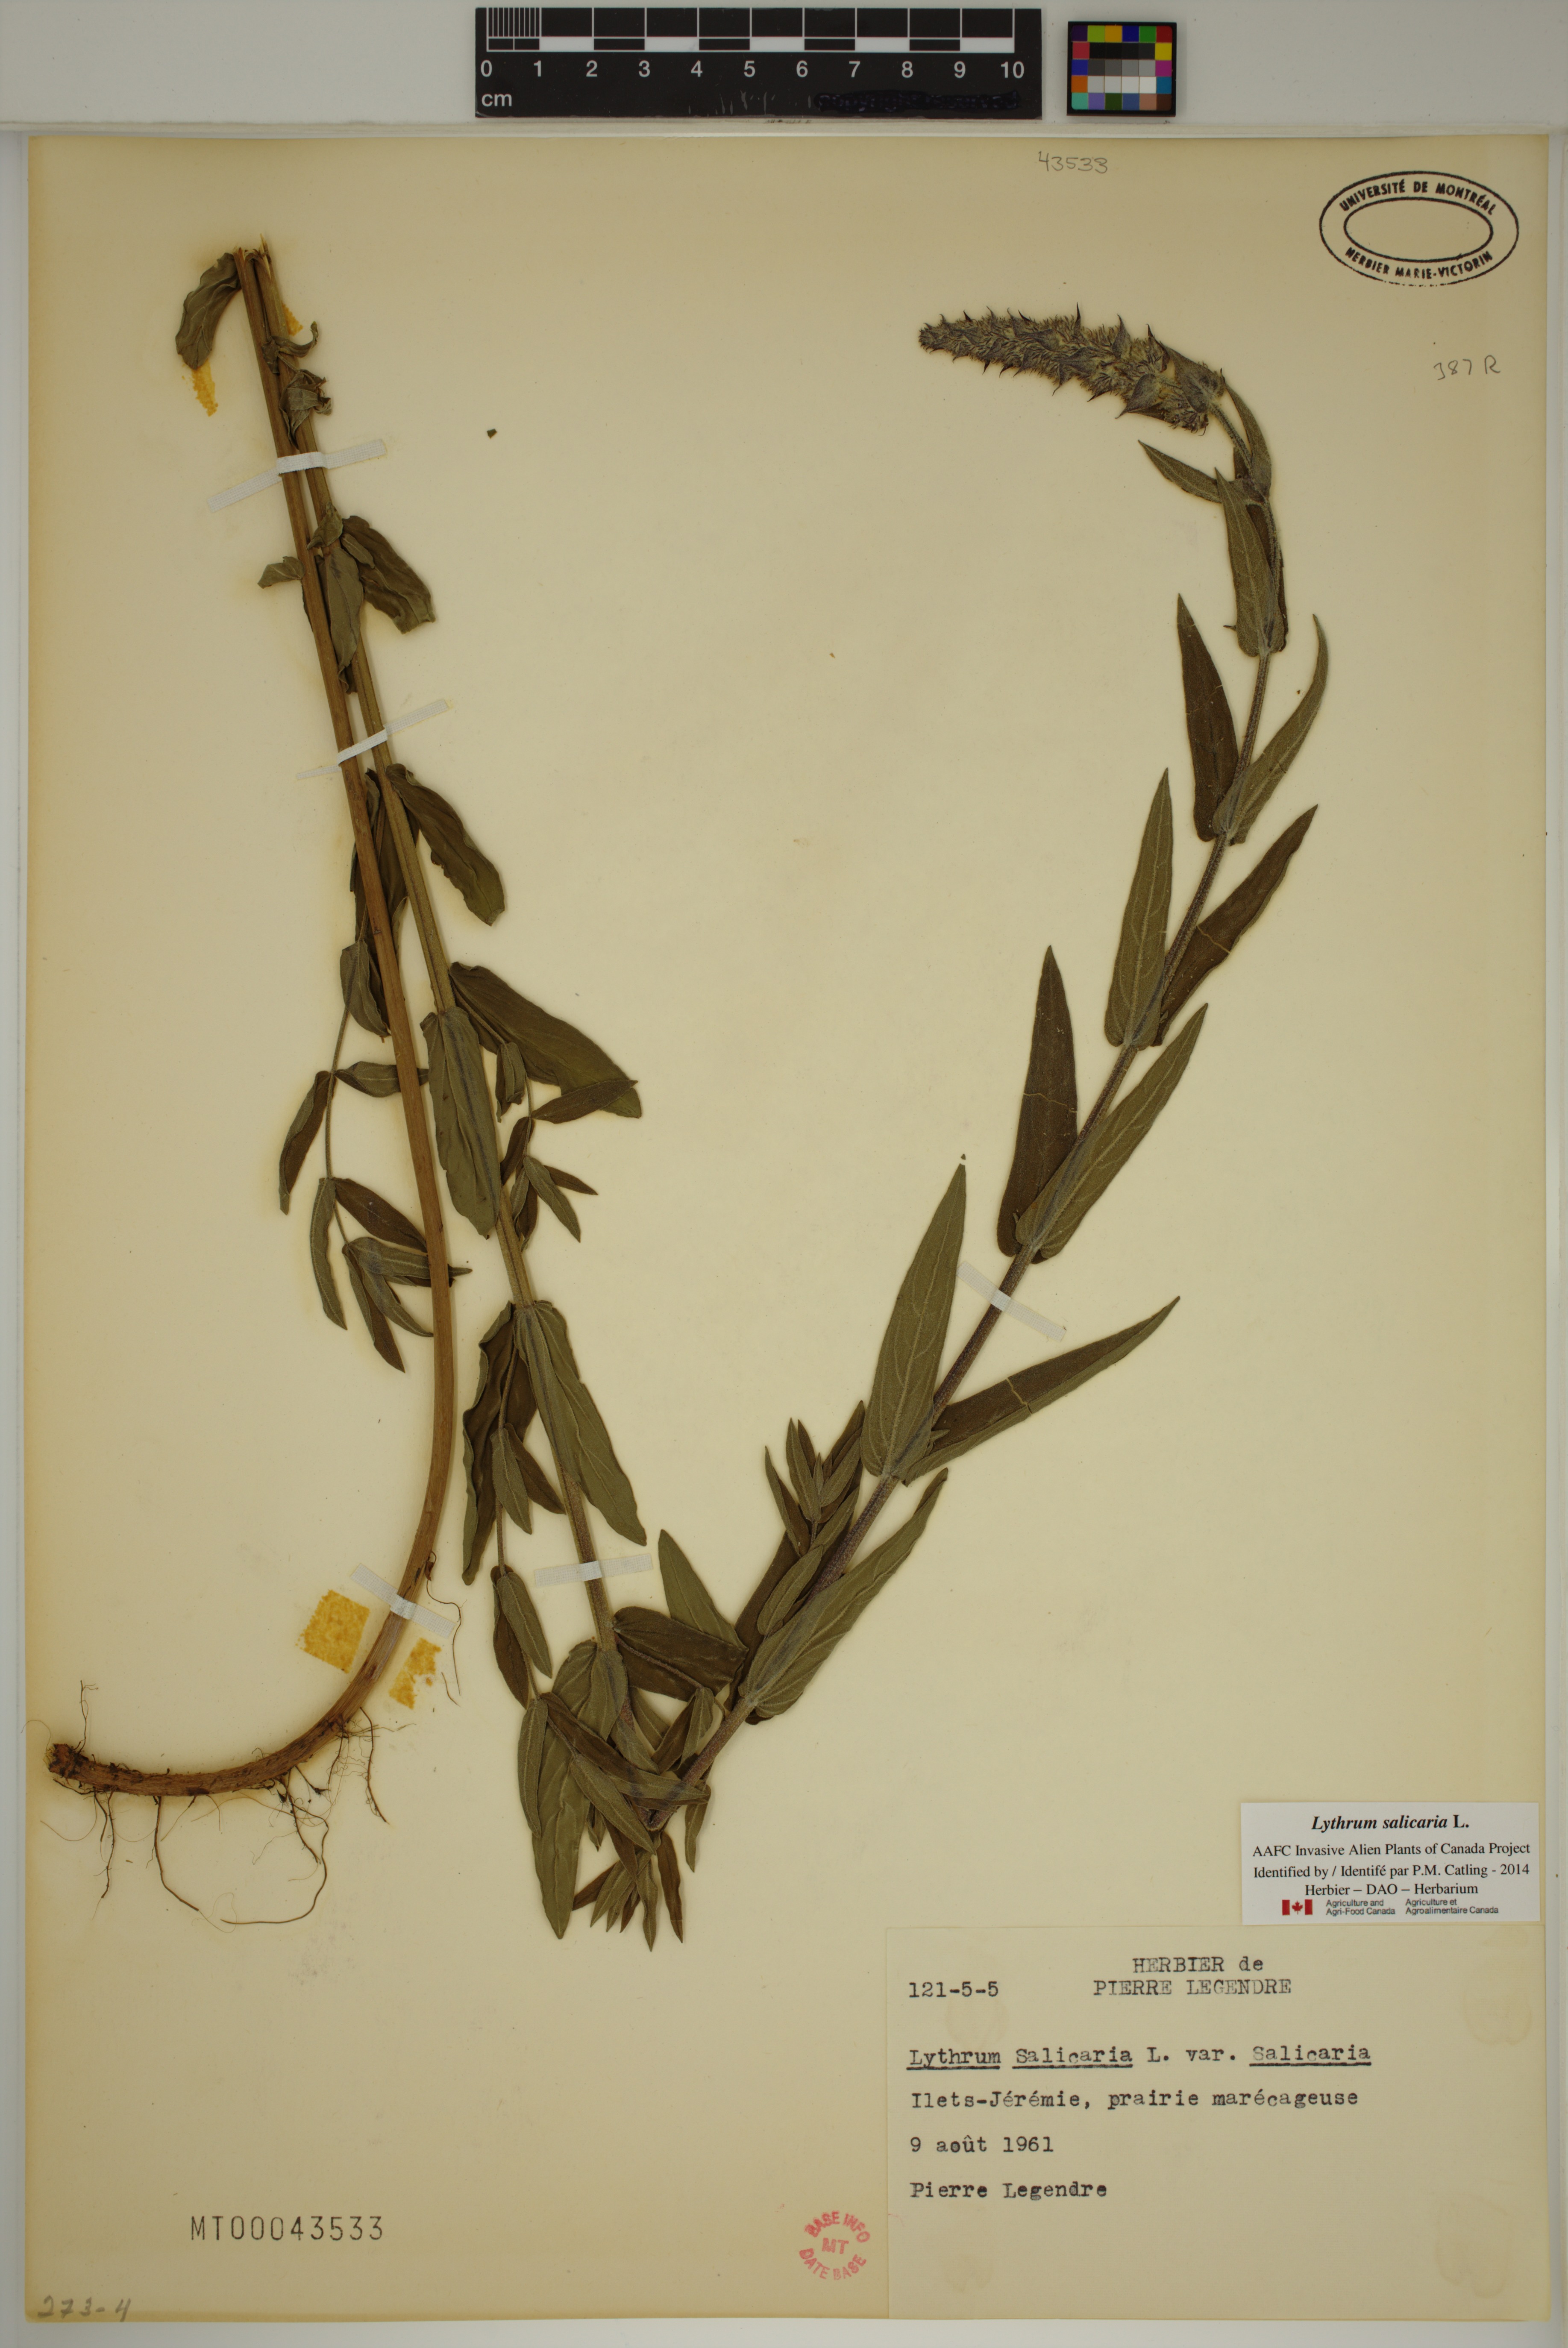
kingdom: Plantae
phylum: Tracheophyta
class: Magnoliopsida
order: Myrtales
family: Lythraceae
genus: Lythrum
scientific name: Lythrum salicaria
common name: Purple loosestrife
